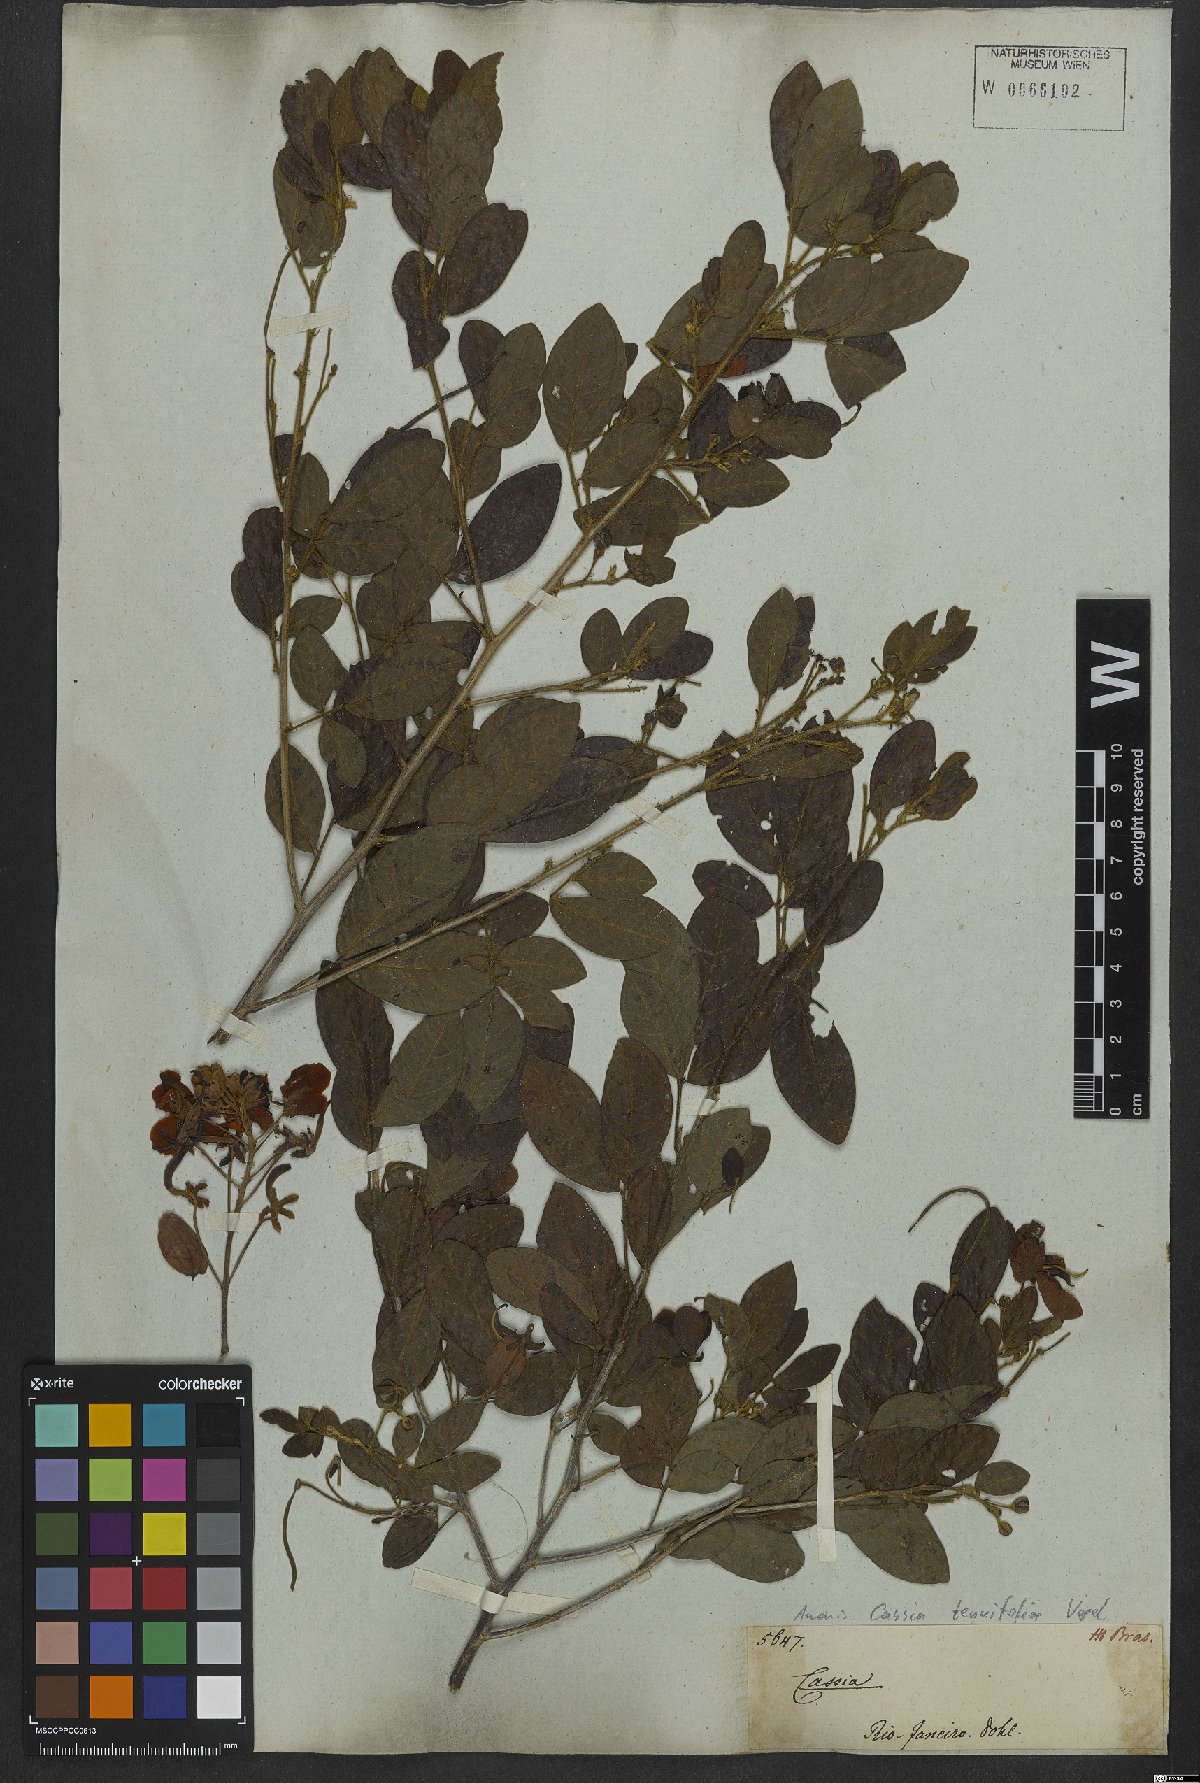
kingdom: Plantae
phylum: Tracheophyta
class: Magnoliopsida
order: Fabales
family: Fabaceae
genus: Senna
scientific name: Senna tenuifolia
